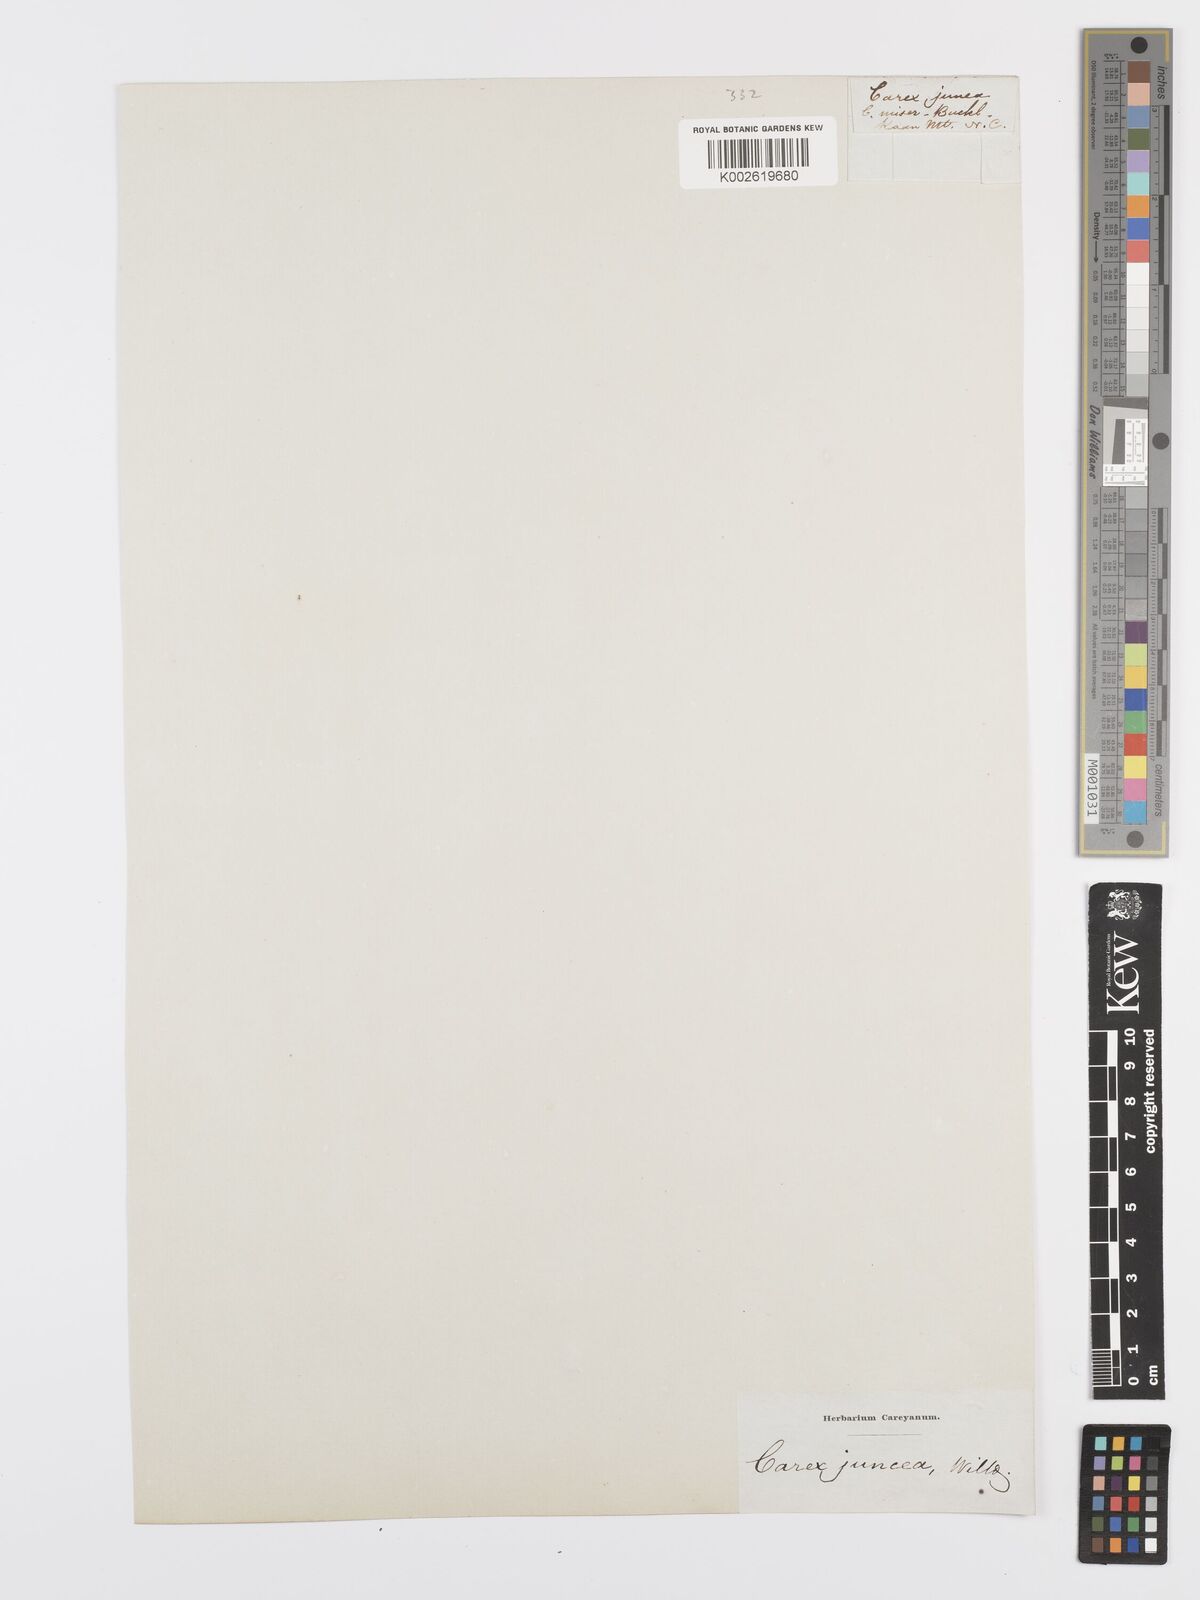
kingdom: Plantae
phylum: Tracheophyta
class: Liliopsida
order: Poales
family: Cyperaceae
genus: Carex
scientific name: Carex misera
